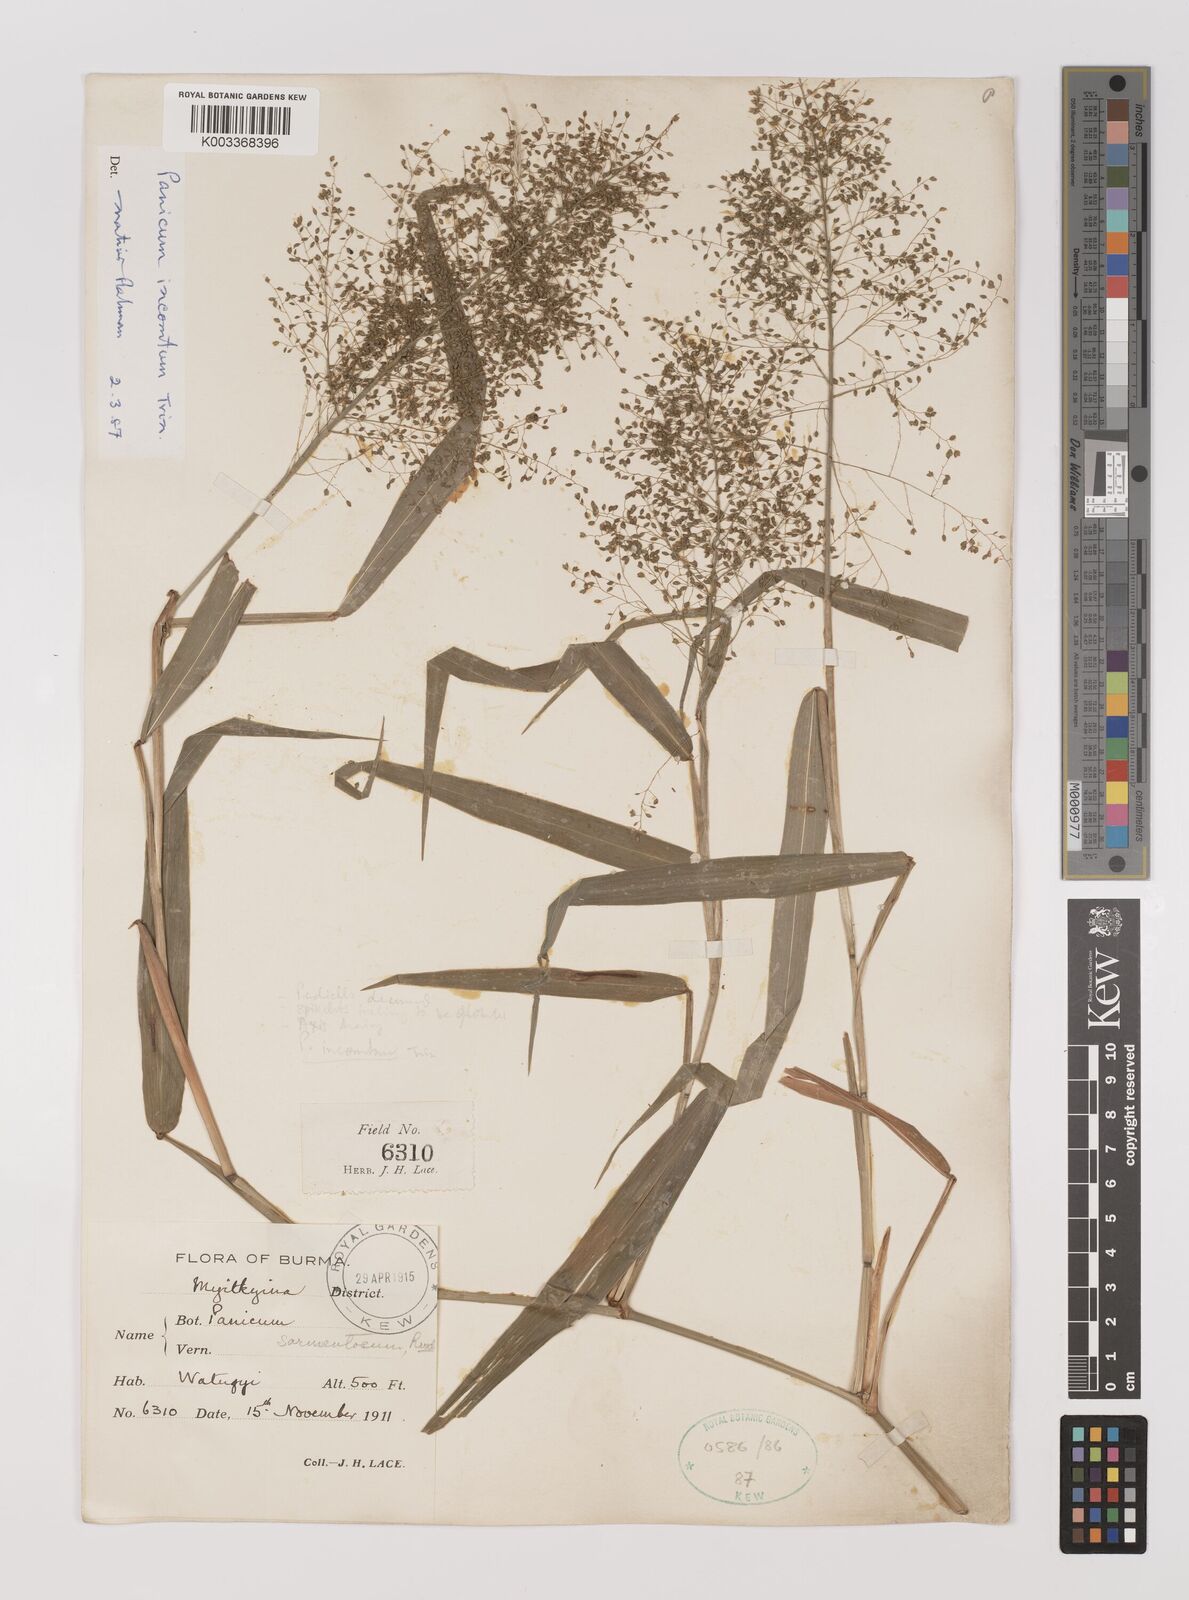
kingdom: Plantae
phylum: Tracheophyta
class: Liliopsida
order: Poales
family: Poaceae
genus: Panicum
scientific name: Panicum incomtum
